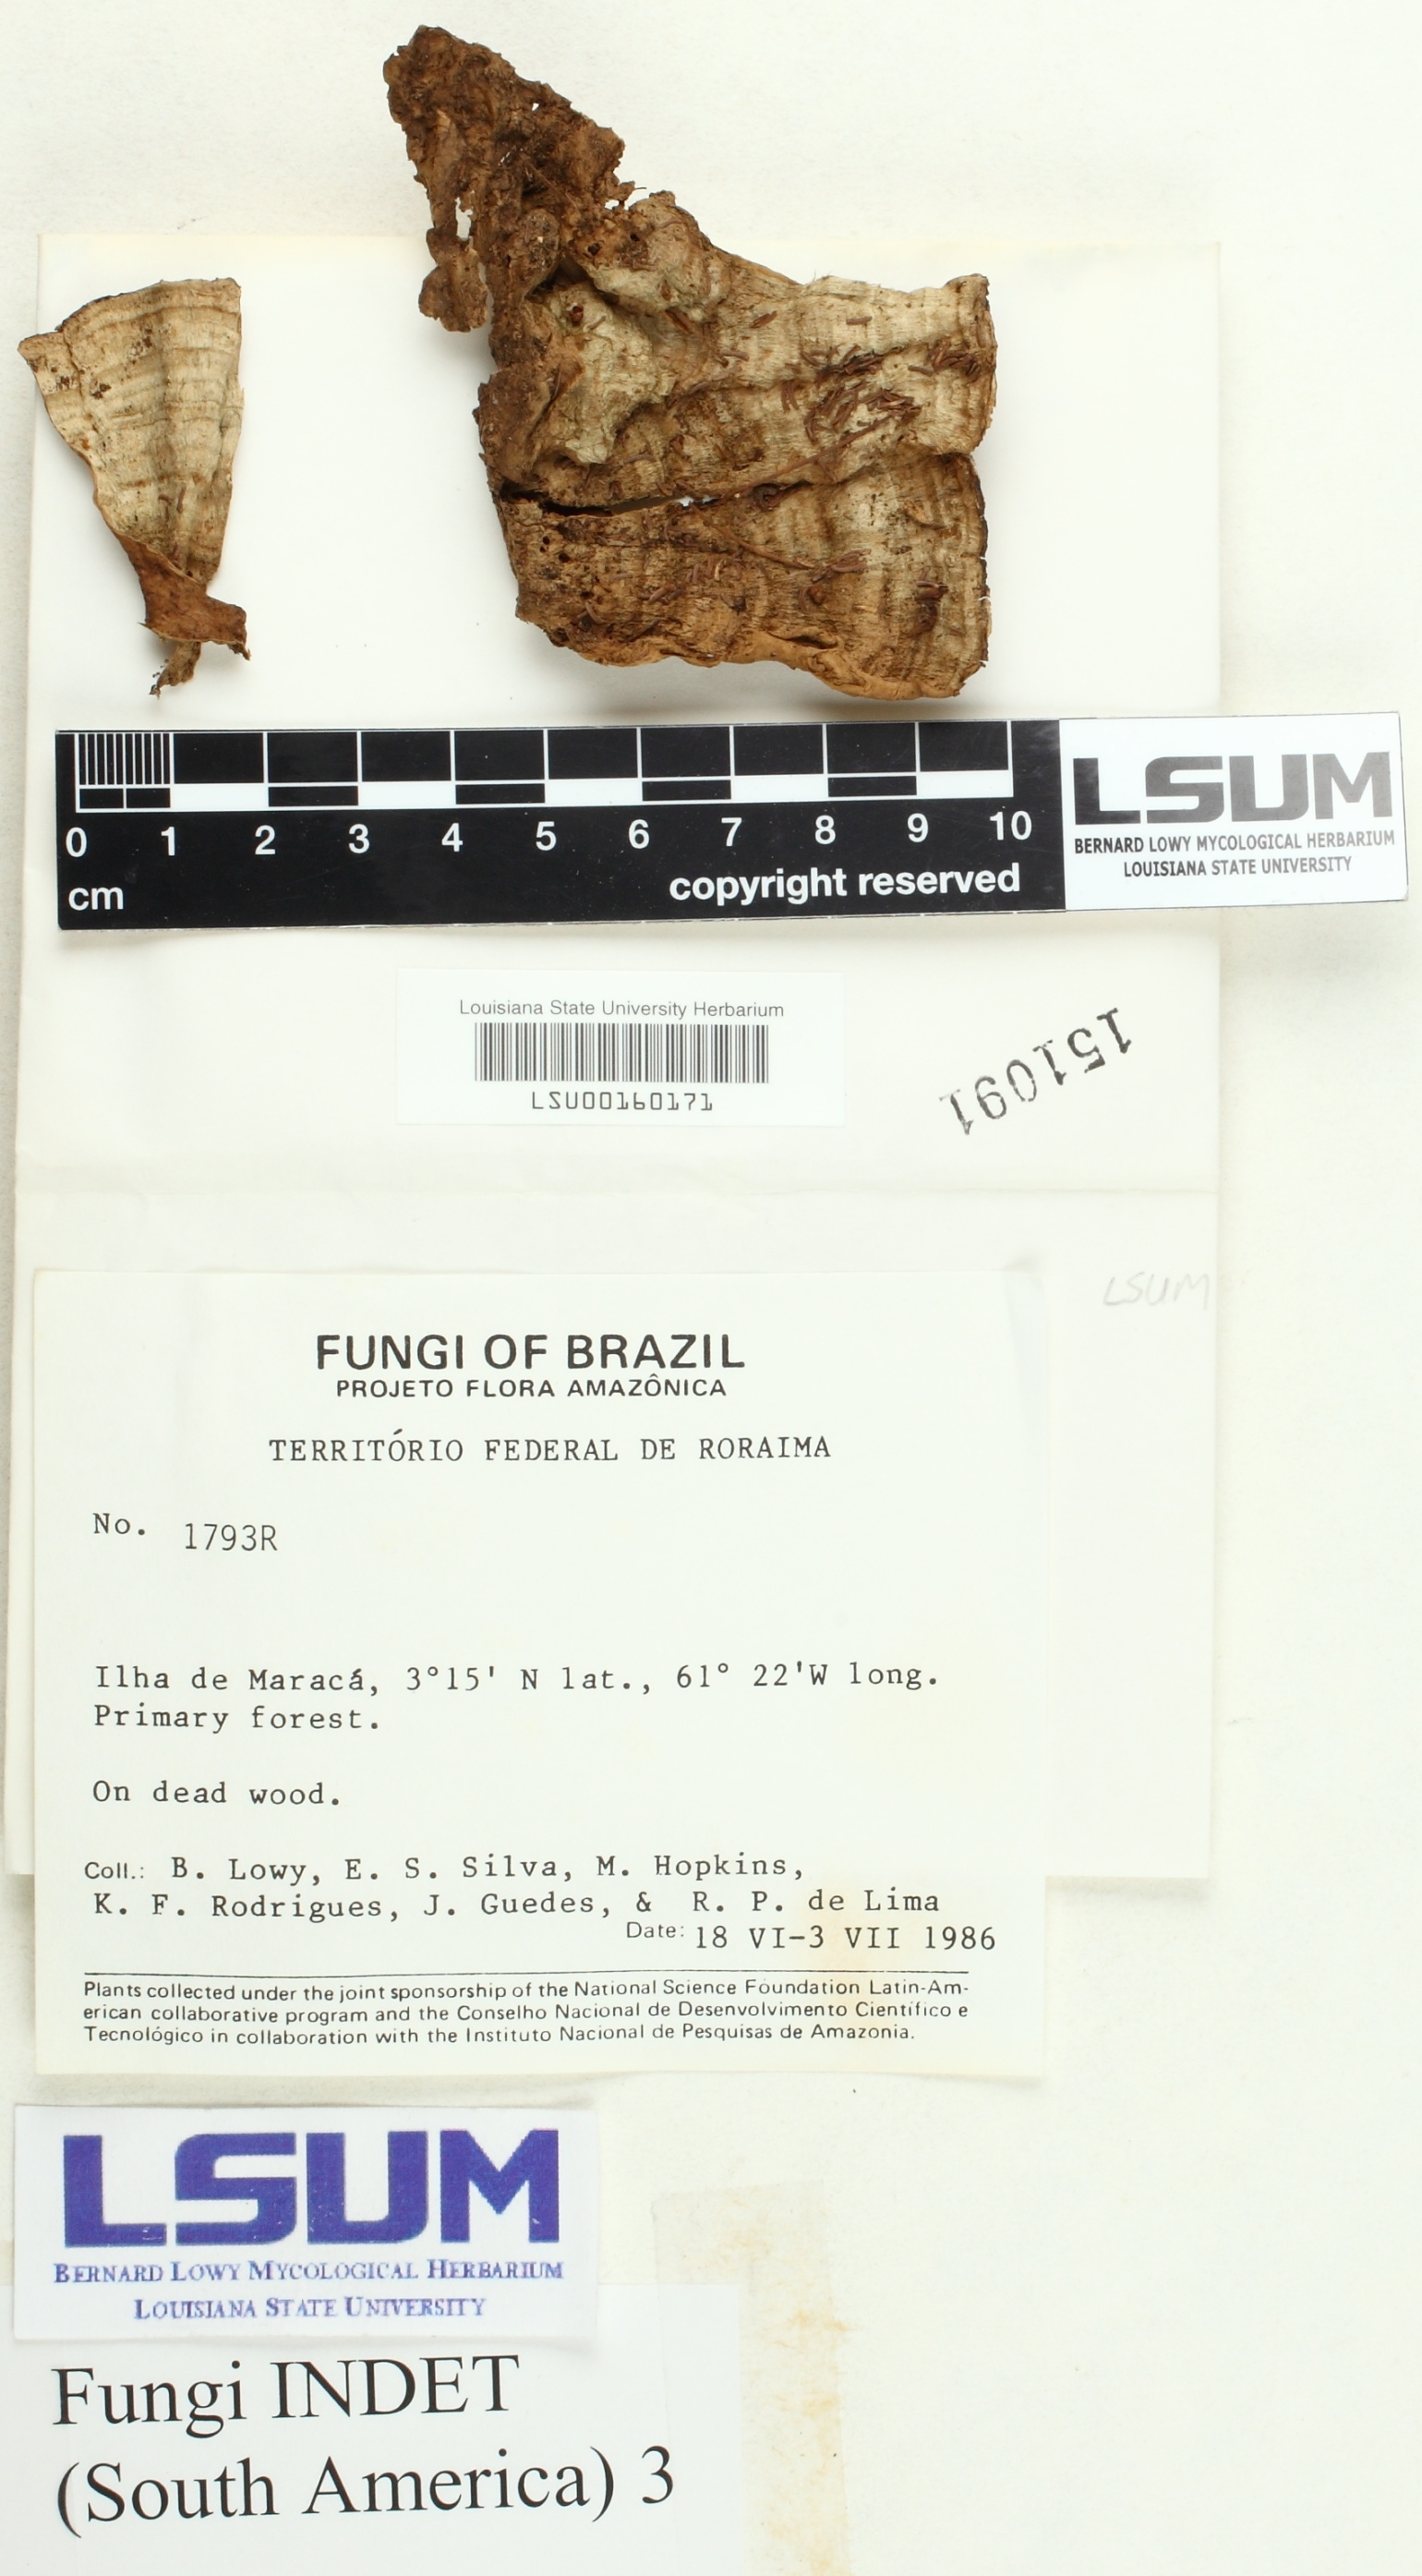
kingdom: Fungi
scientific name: Fungi
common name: Fungi
